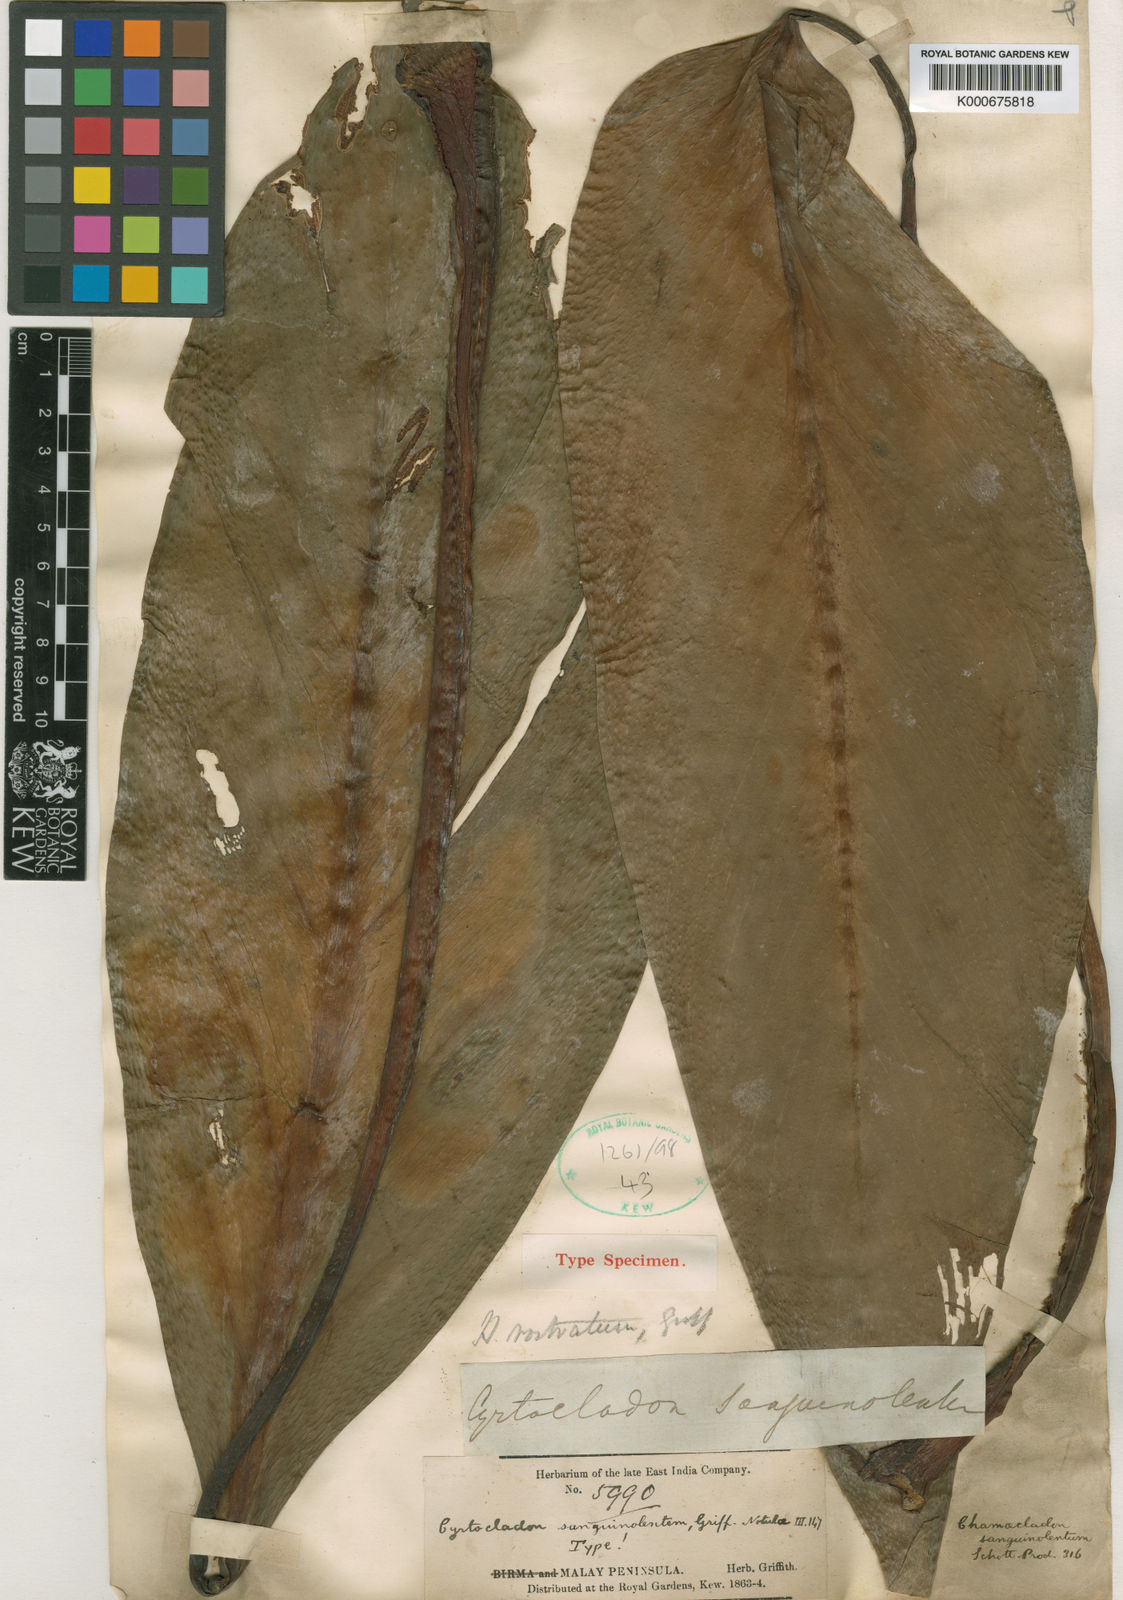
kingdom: Plantae
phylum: Tracheophyta
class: Liliopsida
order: Alismatales
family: Araceae
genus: Homalomena
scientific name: Homalomena rostrata
